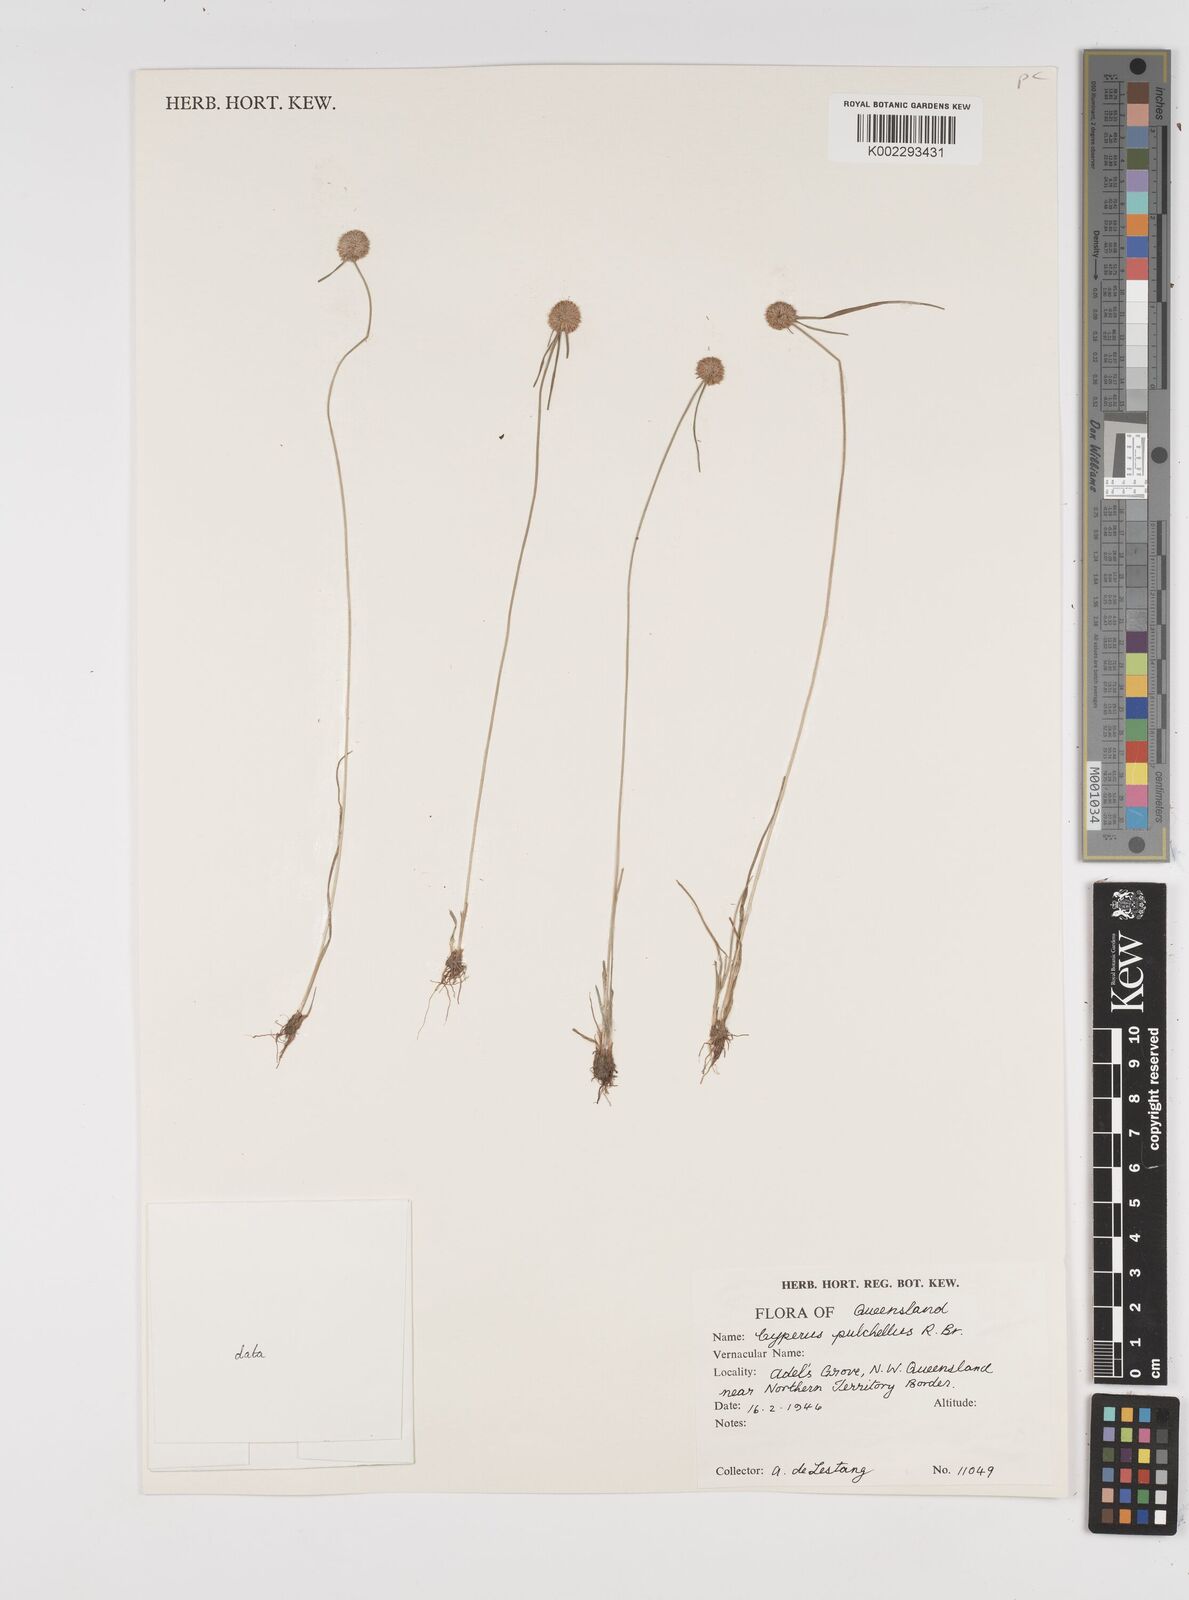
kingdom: Plantae
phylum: Tracheophyta
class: Liliopsida
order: Poales
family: Cyperaceae
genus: Cyperus
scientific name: Cyperus pulchellus
